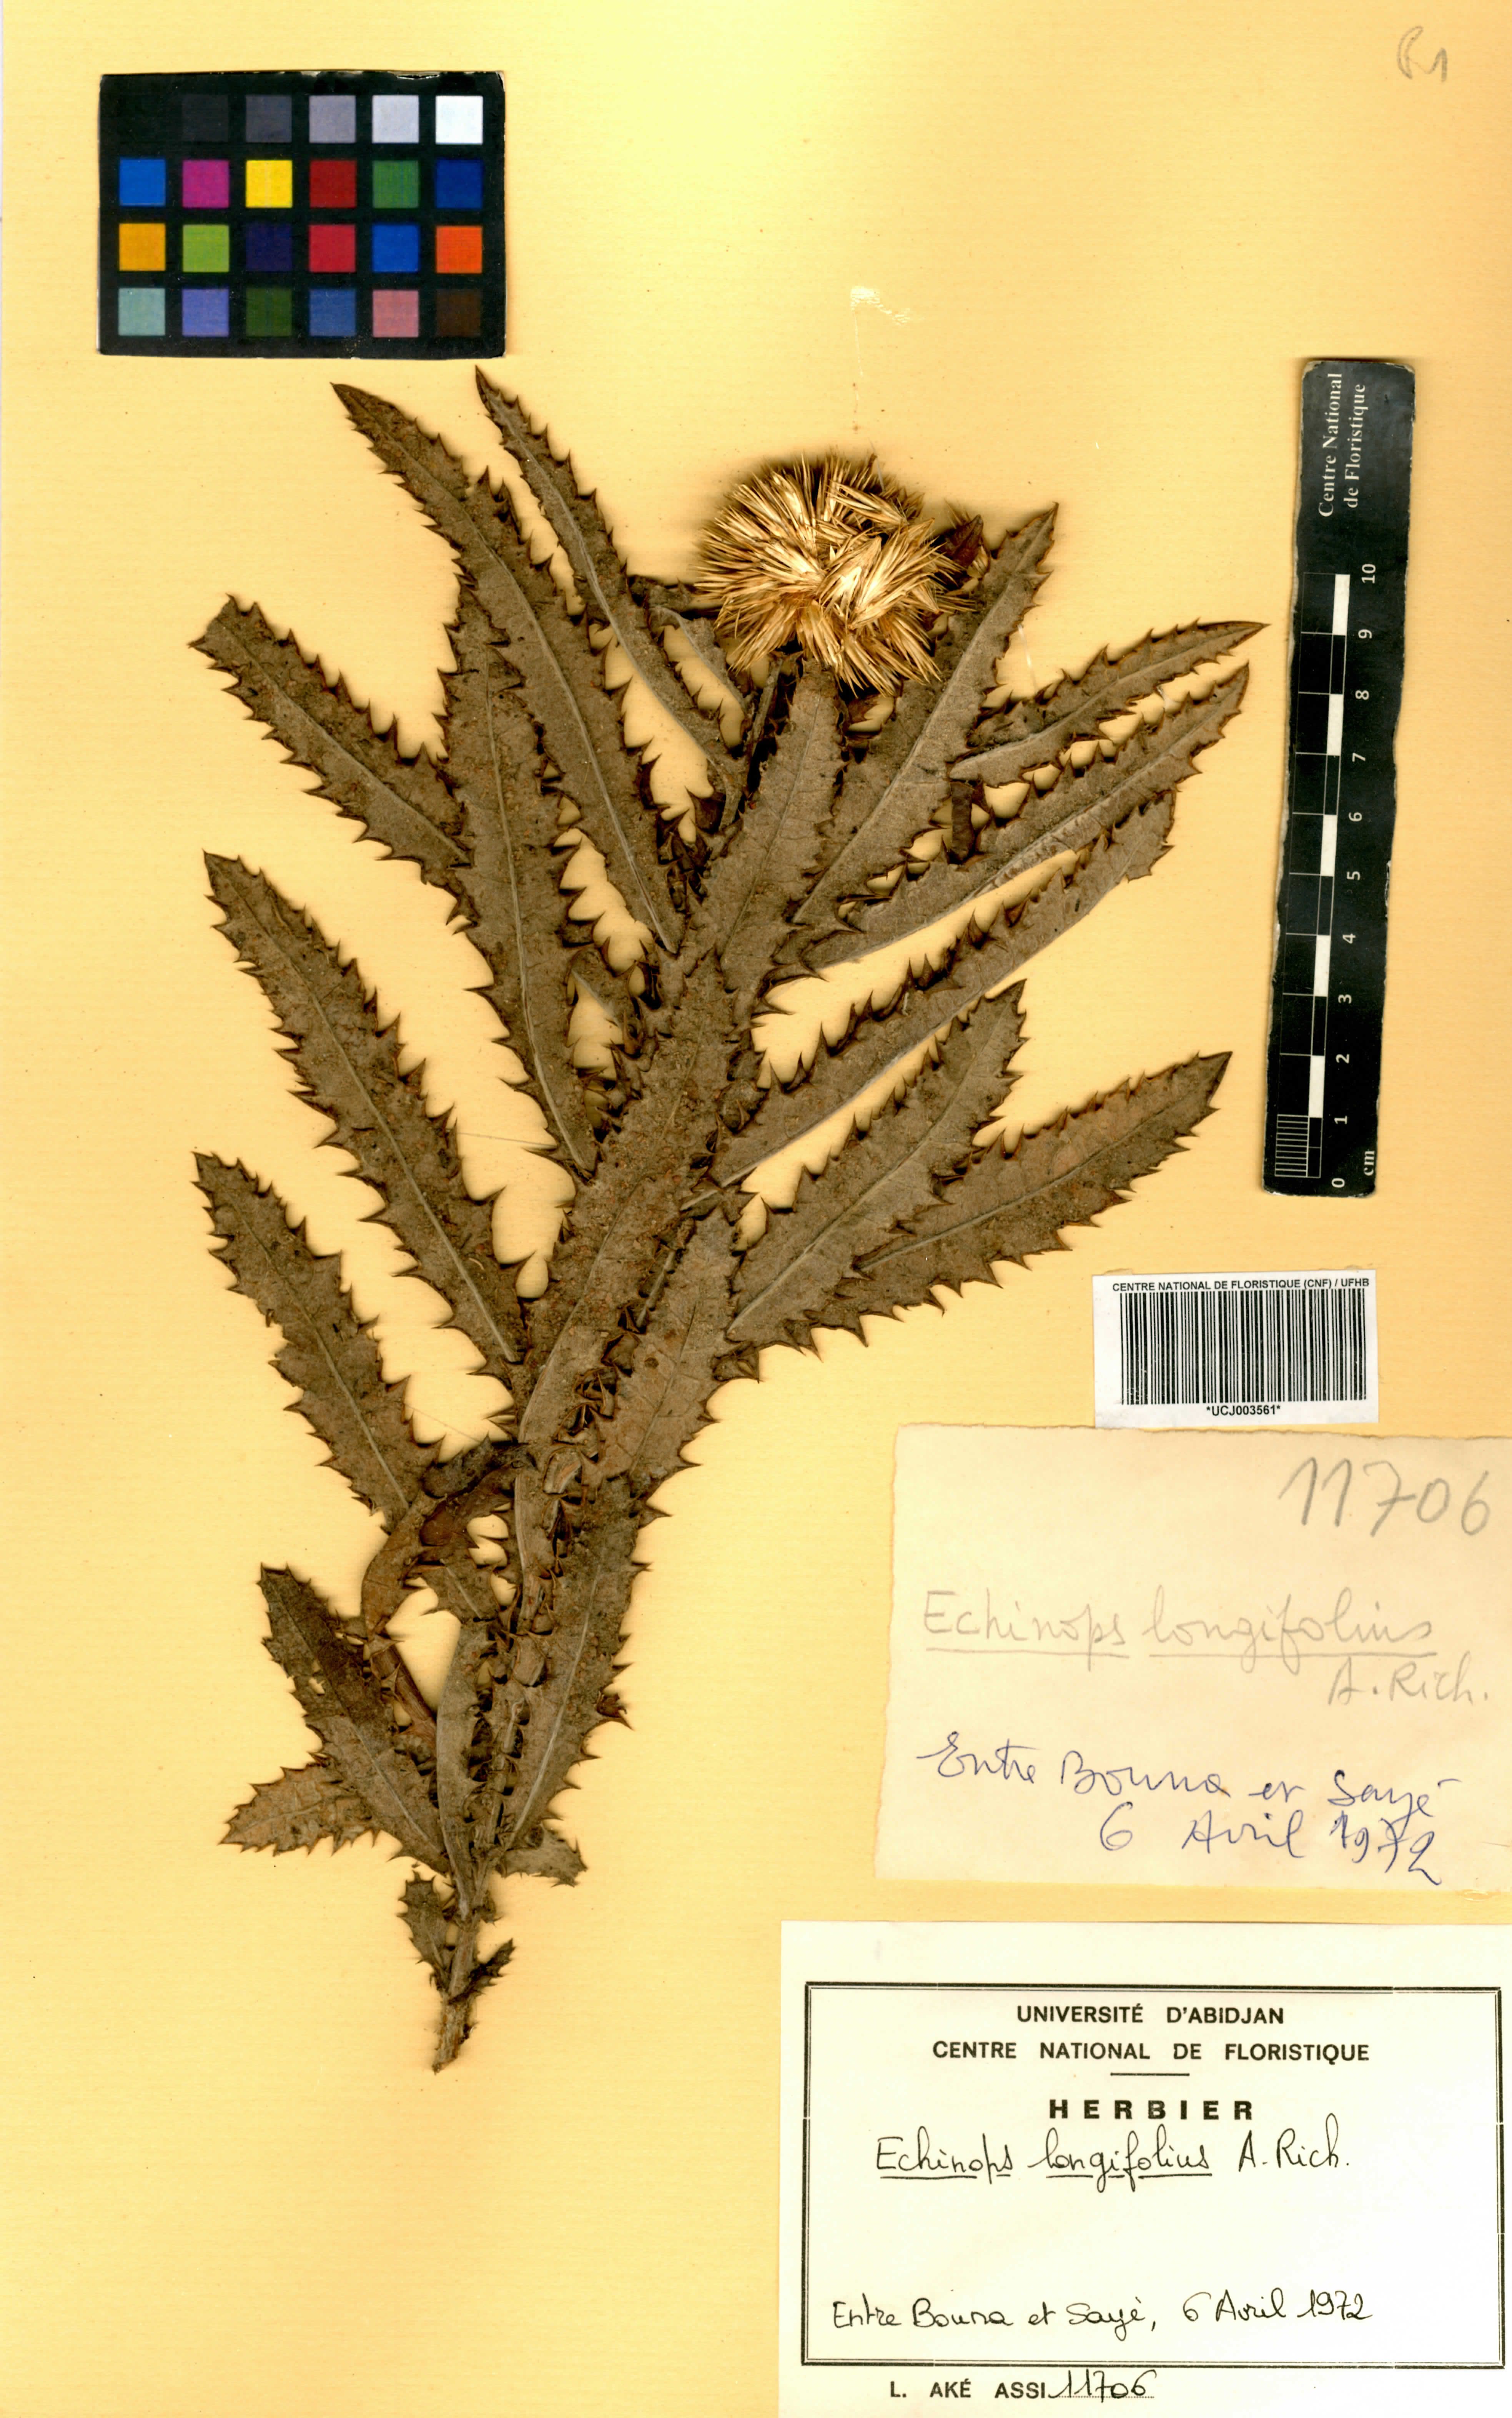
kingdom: Plantae
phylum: Tracheophyta
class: Magnoliopsida
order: Asterales
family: Asteraceae
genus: Echinops
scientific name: Echinops longifolius
